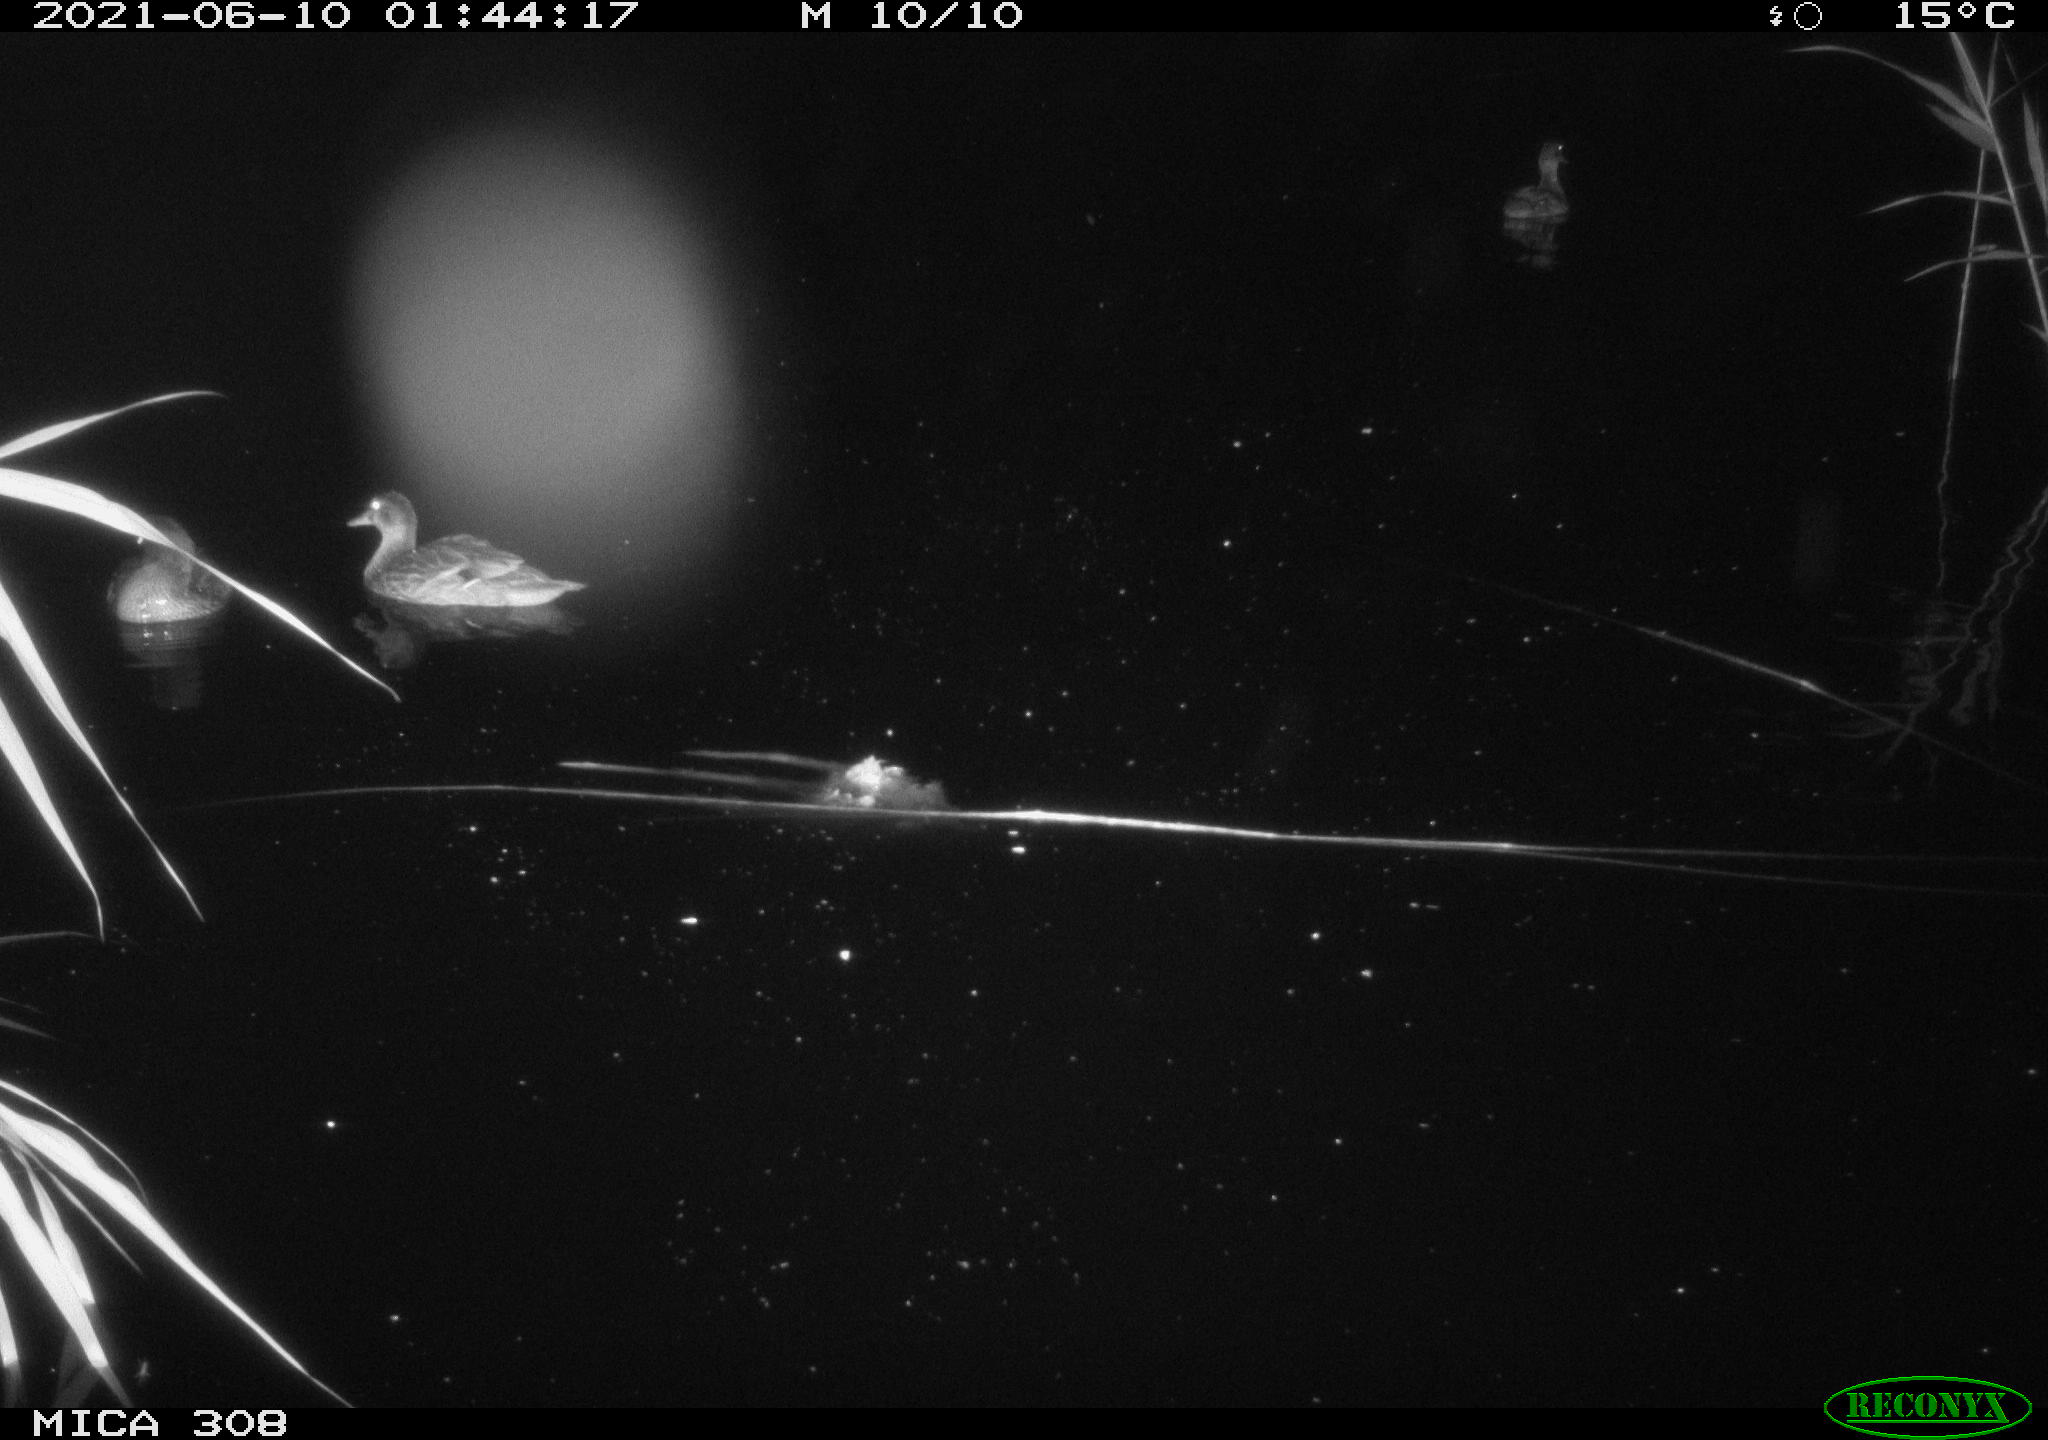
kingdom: Animalia
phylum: Chordata
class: Aves
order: Anseriformes
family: Anatidae
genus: Anas
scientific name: Anas platyrhynchos
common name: Mallard
